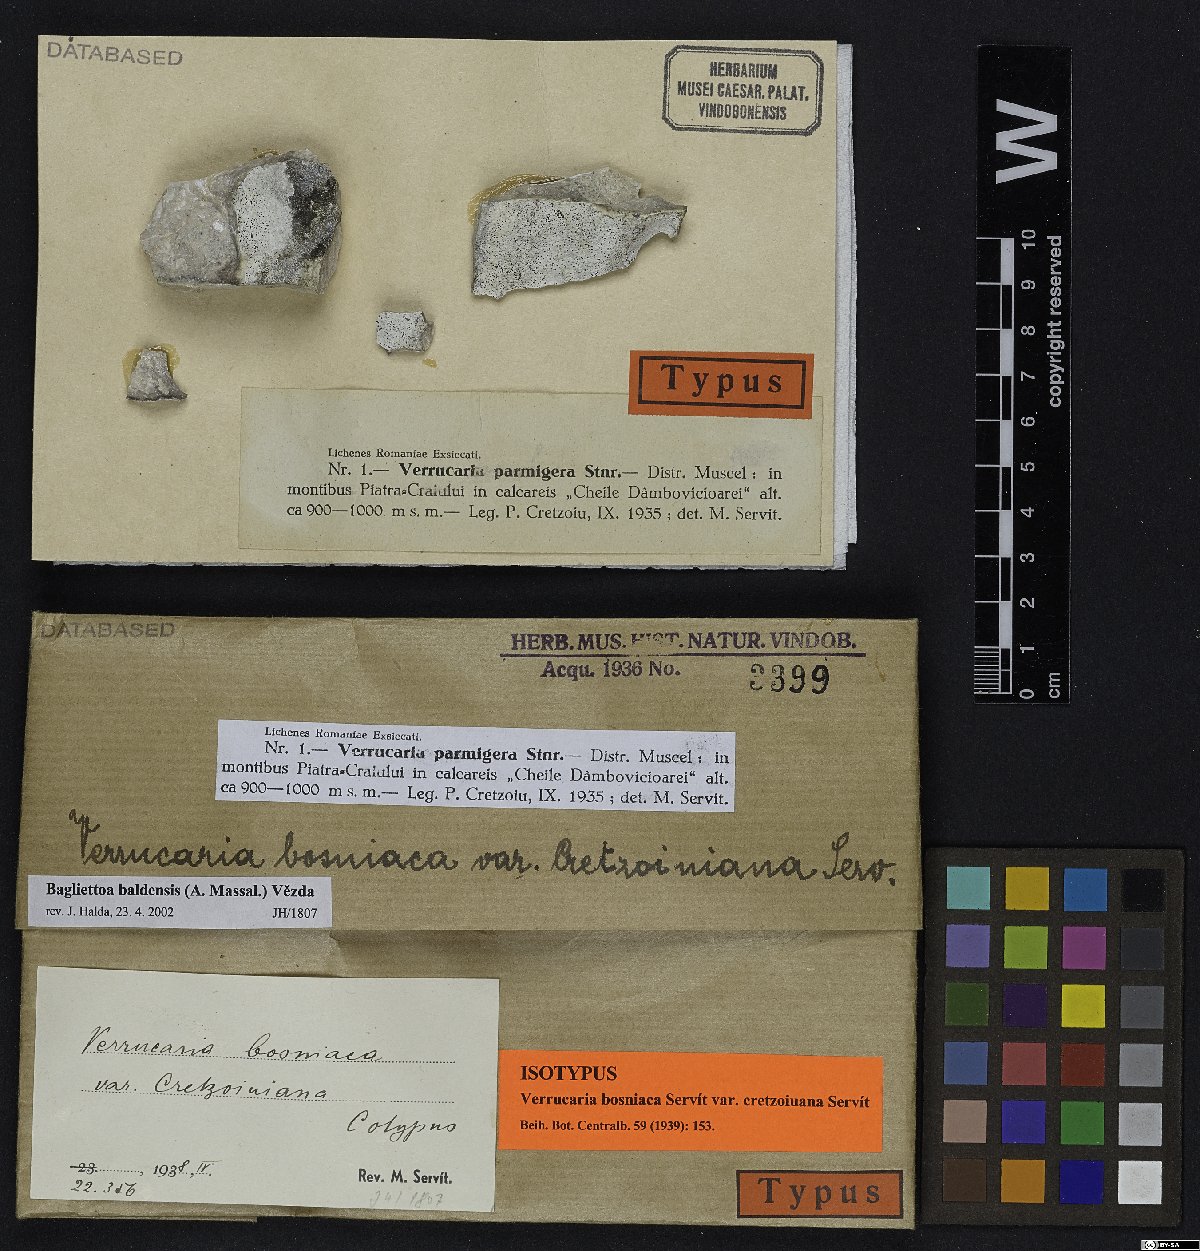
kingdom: Fungi
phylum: Ascomycota
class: Eurotiomycetes
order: Verrucariales
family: Verrucariaceae
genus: Bagliettoa
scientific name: Bagliettoa limborioides
